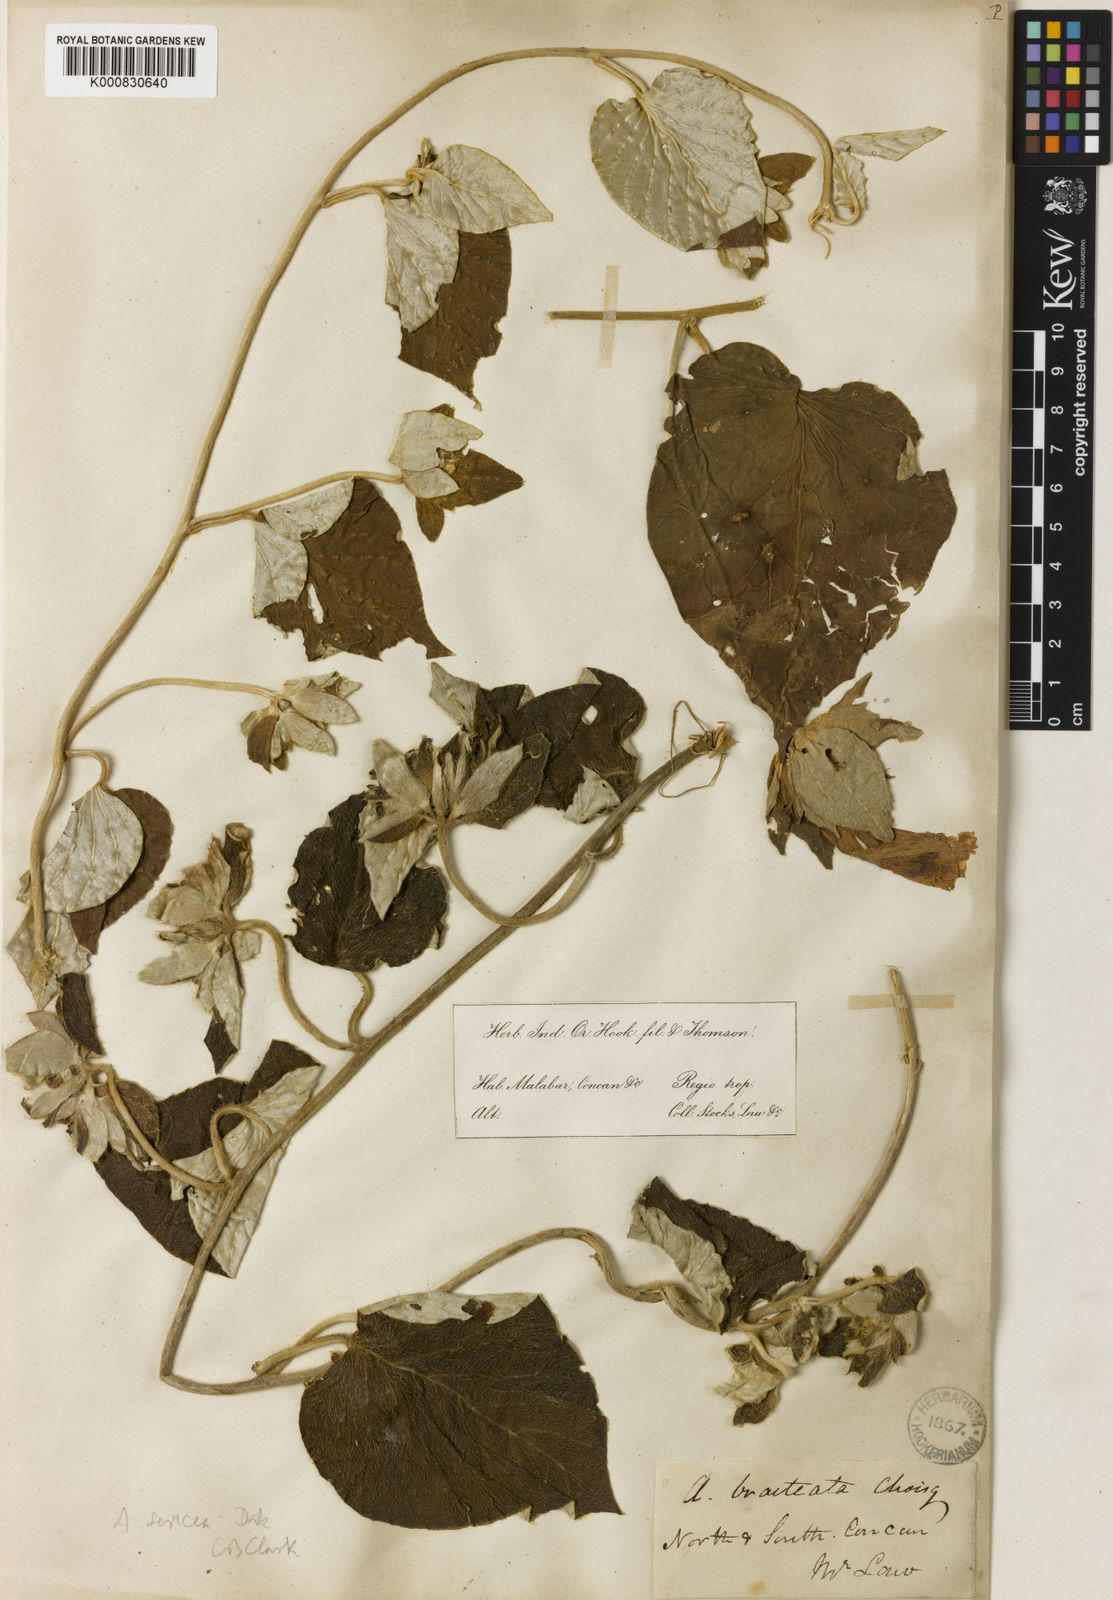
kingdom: Plantae
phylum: Tracheophyta
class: Magnoliopsida
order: Solanales
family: Convolvulaceae
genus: Argyreia
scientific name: Argyreia sericea
